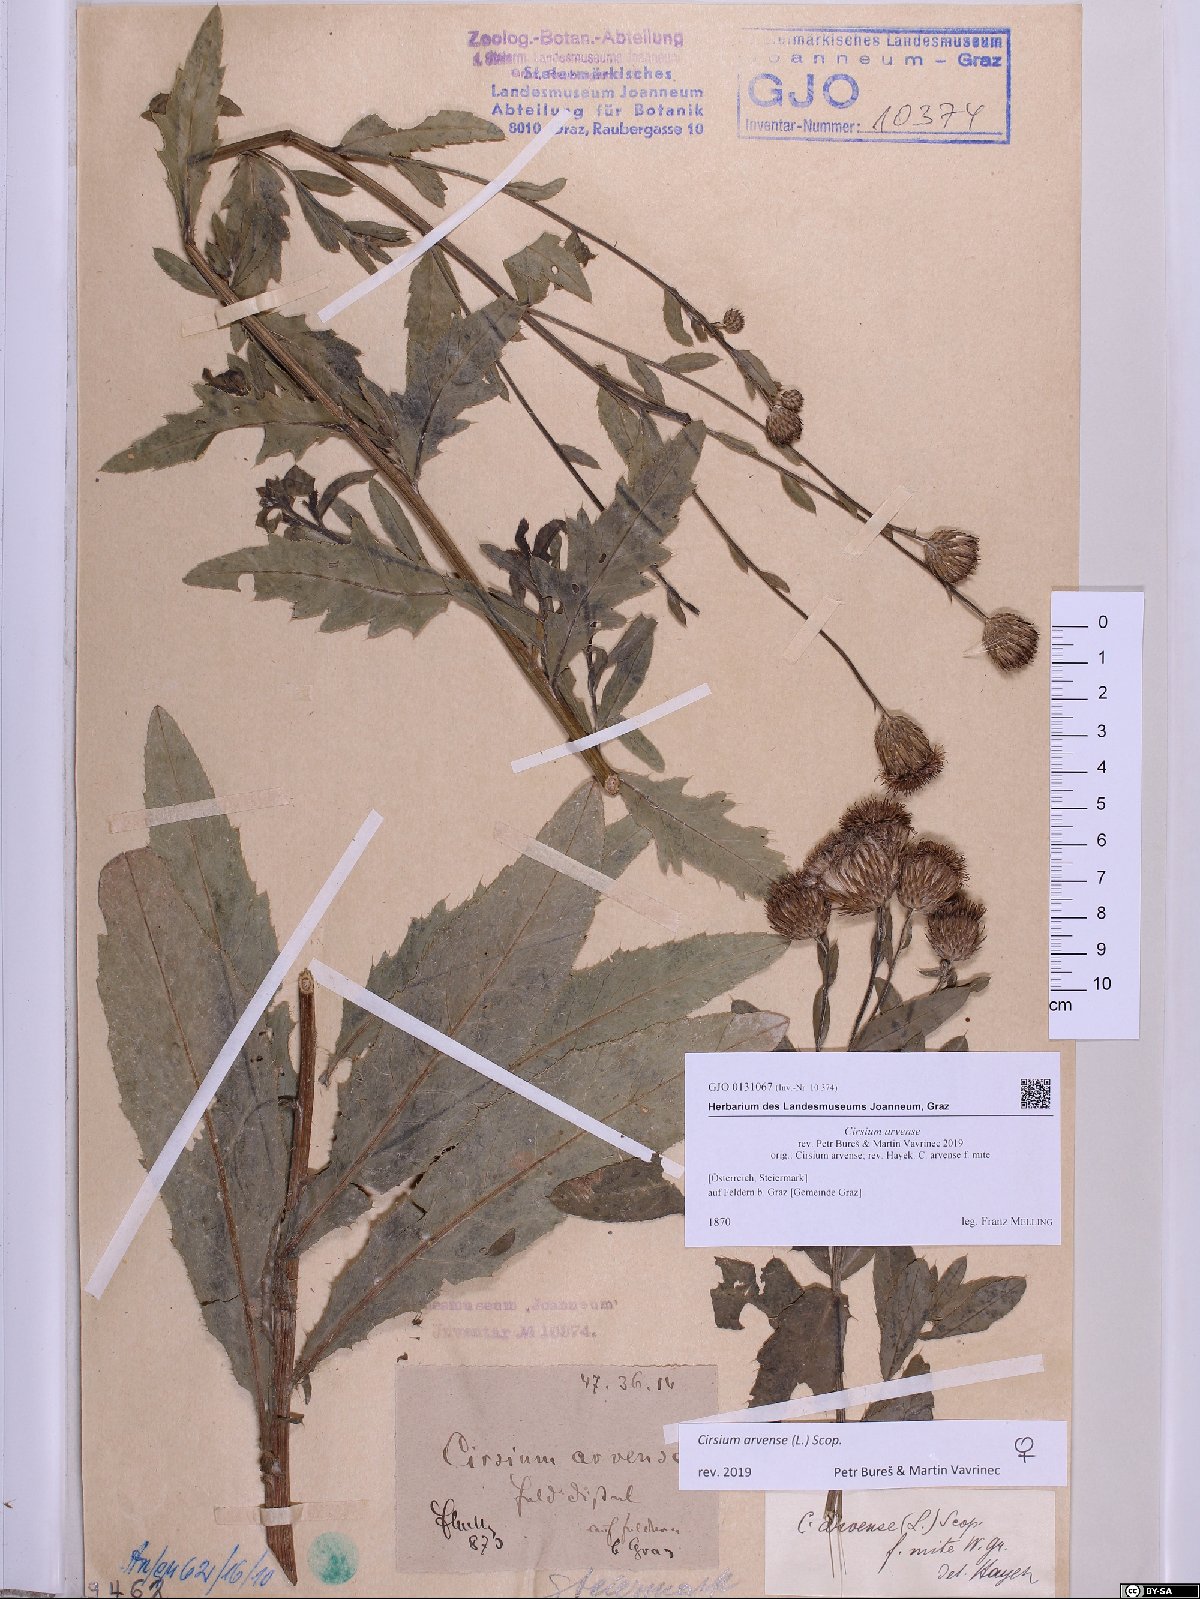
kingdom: Plantae
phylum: Tracheophyta
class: Magnoliopsida
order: Asterales
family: Asteraceae
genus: Cirsium
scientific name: Cirsium arvense
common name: Creeping thistle
